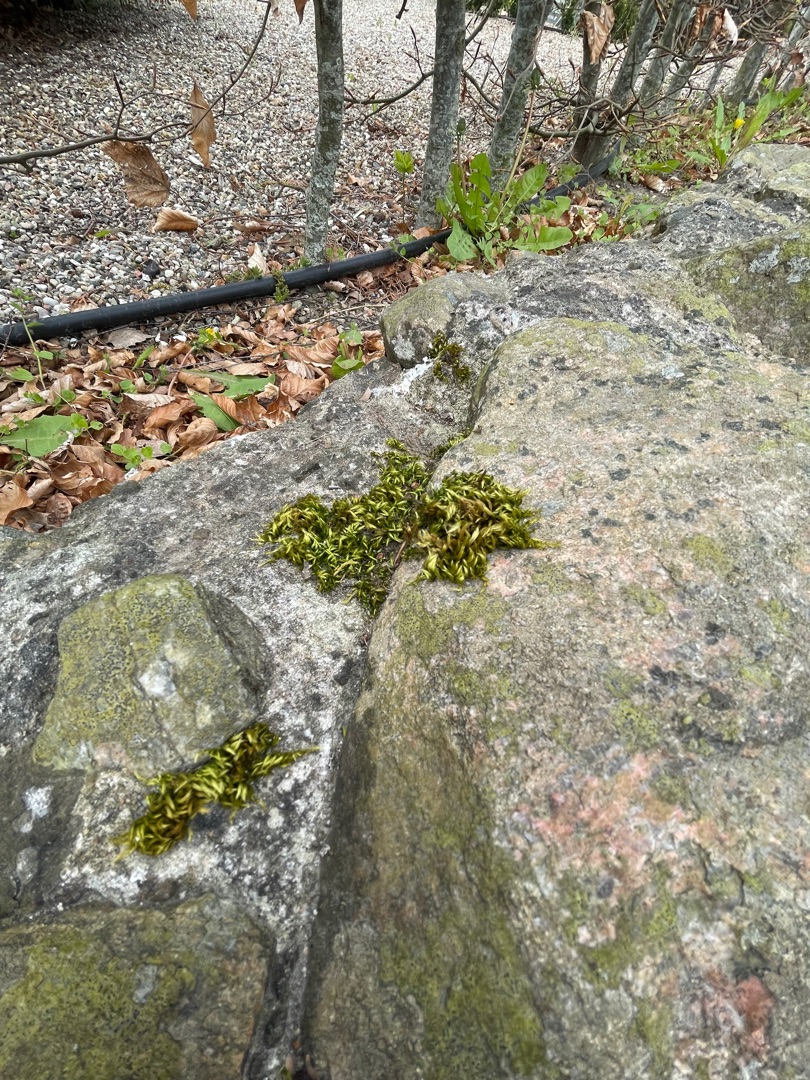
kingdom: Plantae
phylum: Bryophyta
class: Bryopsida
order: Hypnales
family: Brachytheciaceae
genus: Homalothecium
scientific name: Homalothecium sericeum
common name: Krybende silkemos
